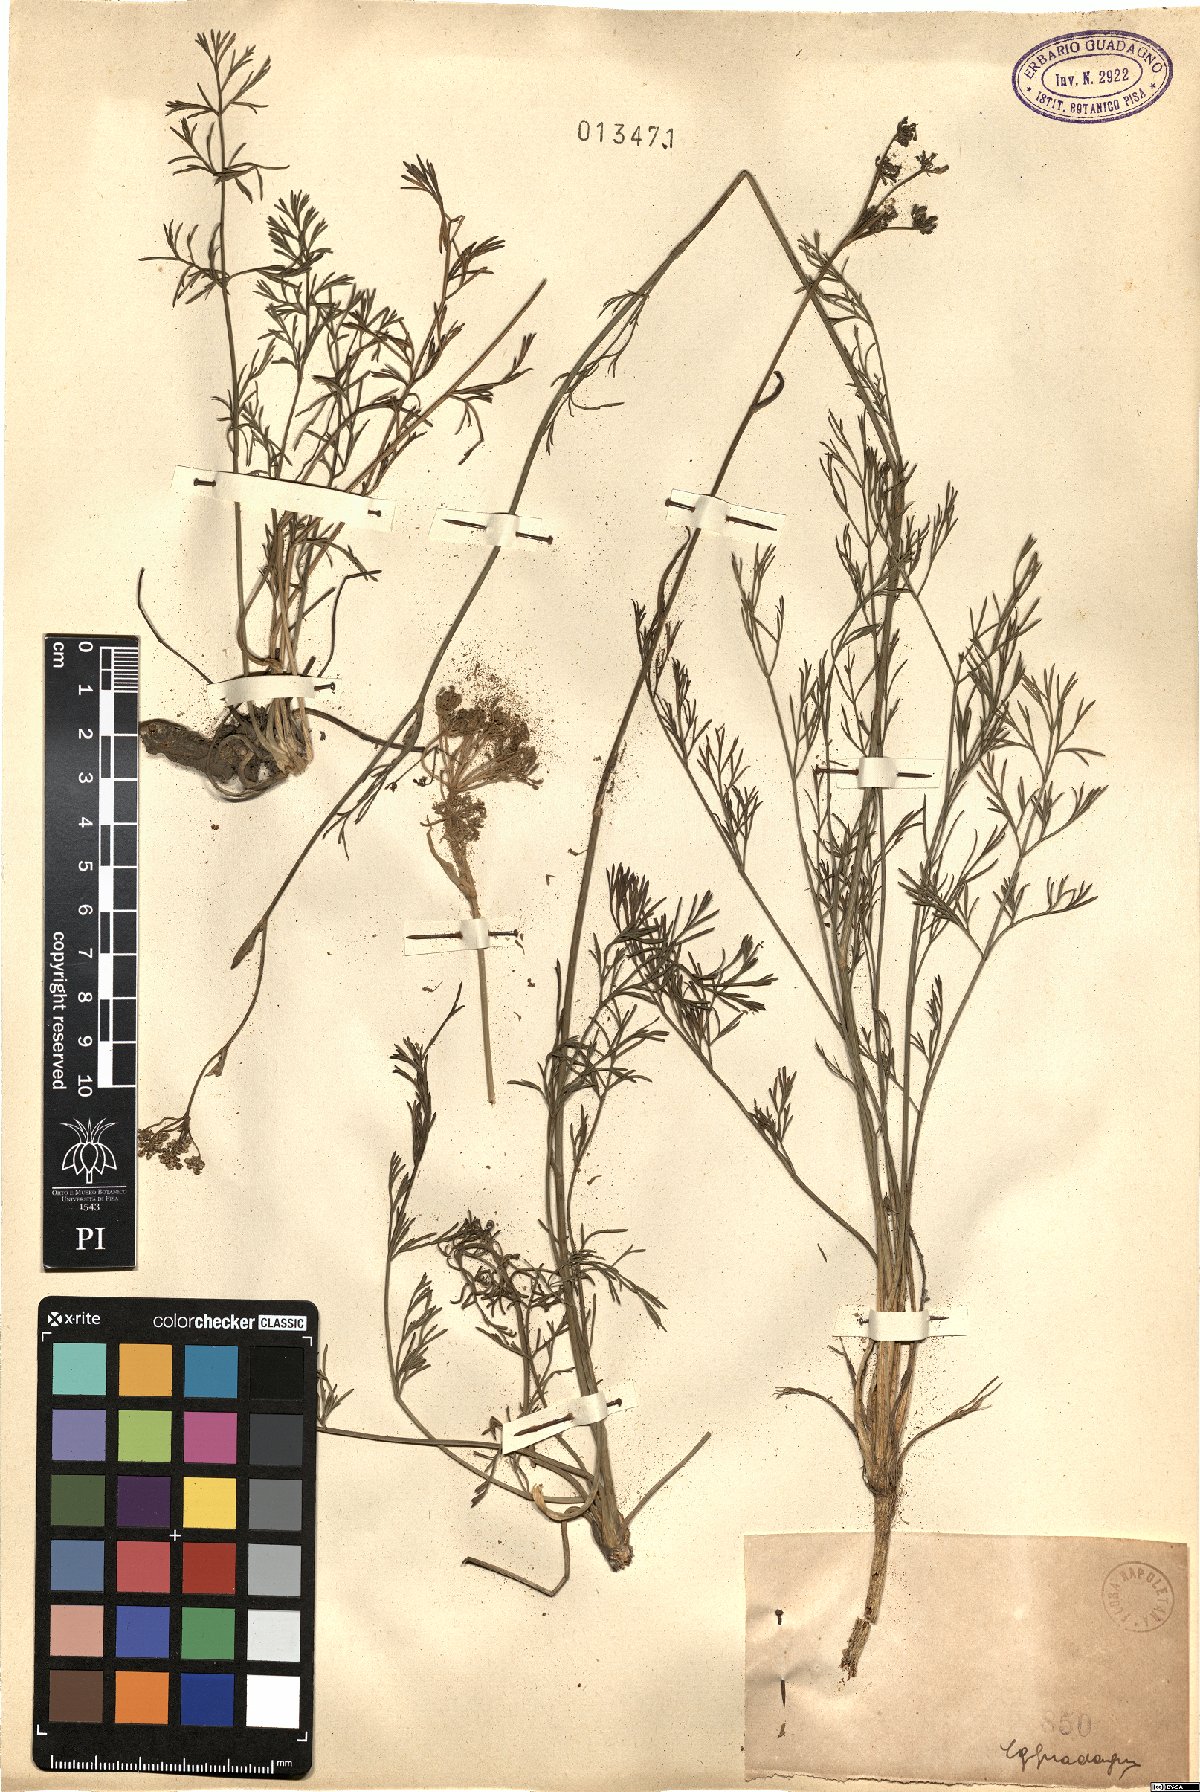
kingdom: Plantae
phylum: Tracheophyta
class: Magnoliopsida
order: Apiales
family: Apiaceae
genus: Seseli
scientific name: Seseli
